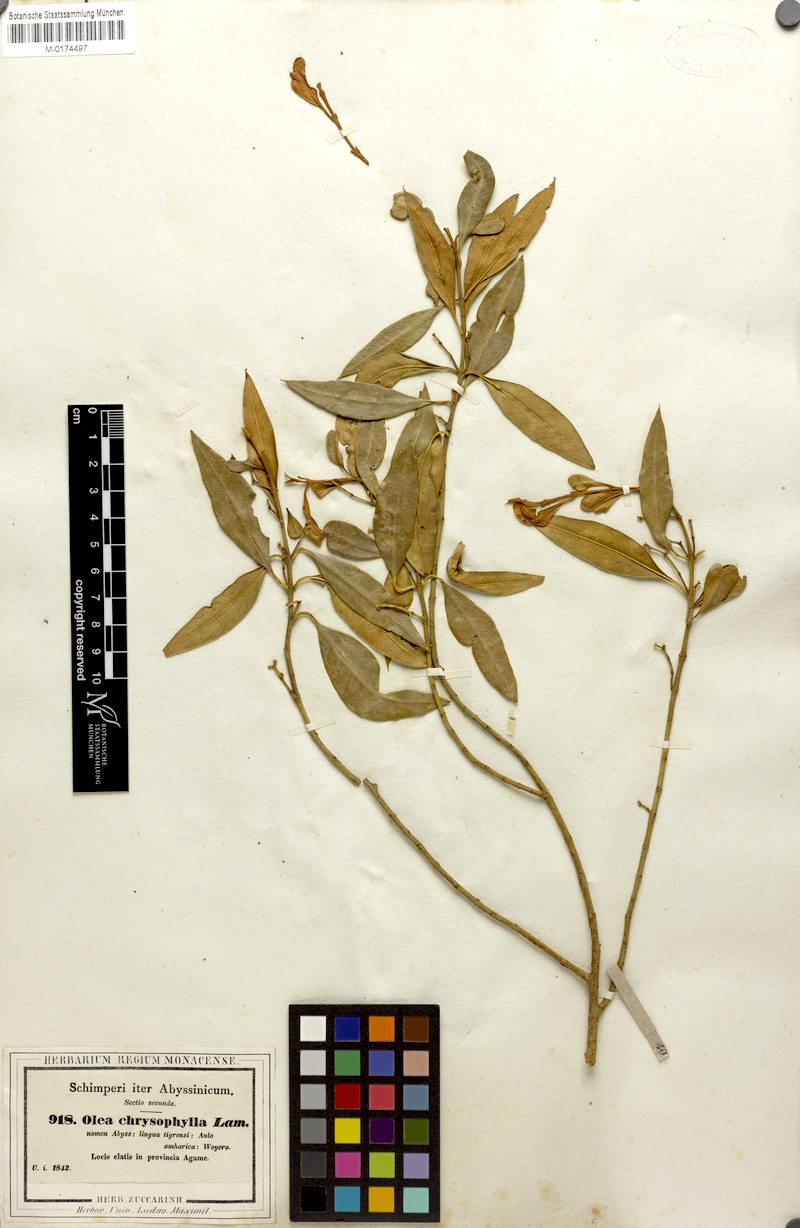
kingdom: Plantae
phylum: Tracheophyta
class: Magnoliopsida
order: Lamiales
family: Oleaceae
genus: Olea
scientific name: Olea europaea
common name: Olive
